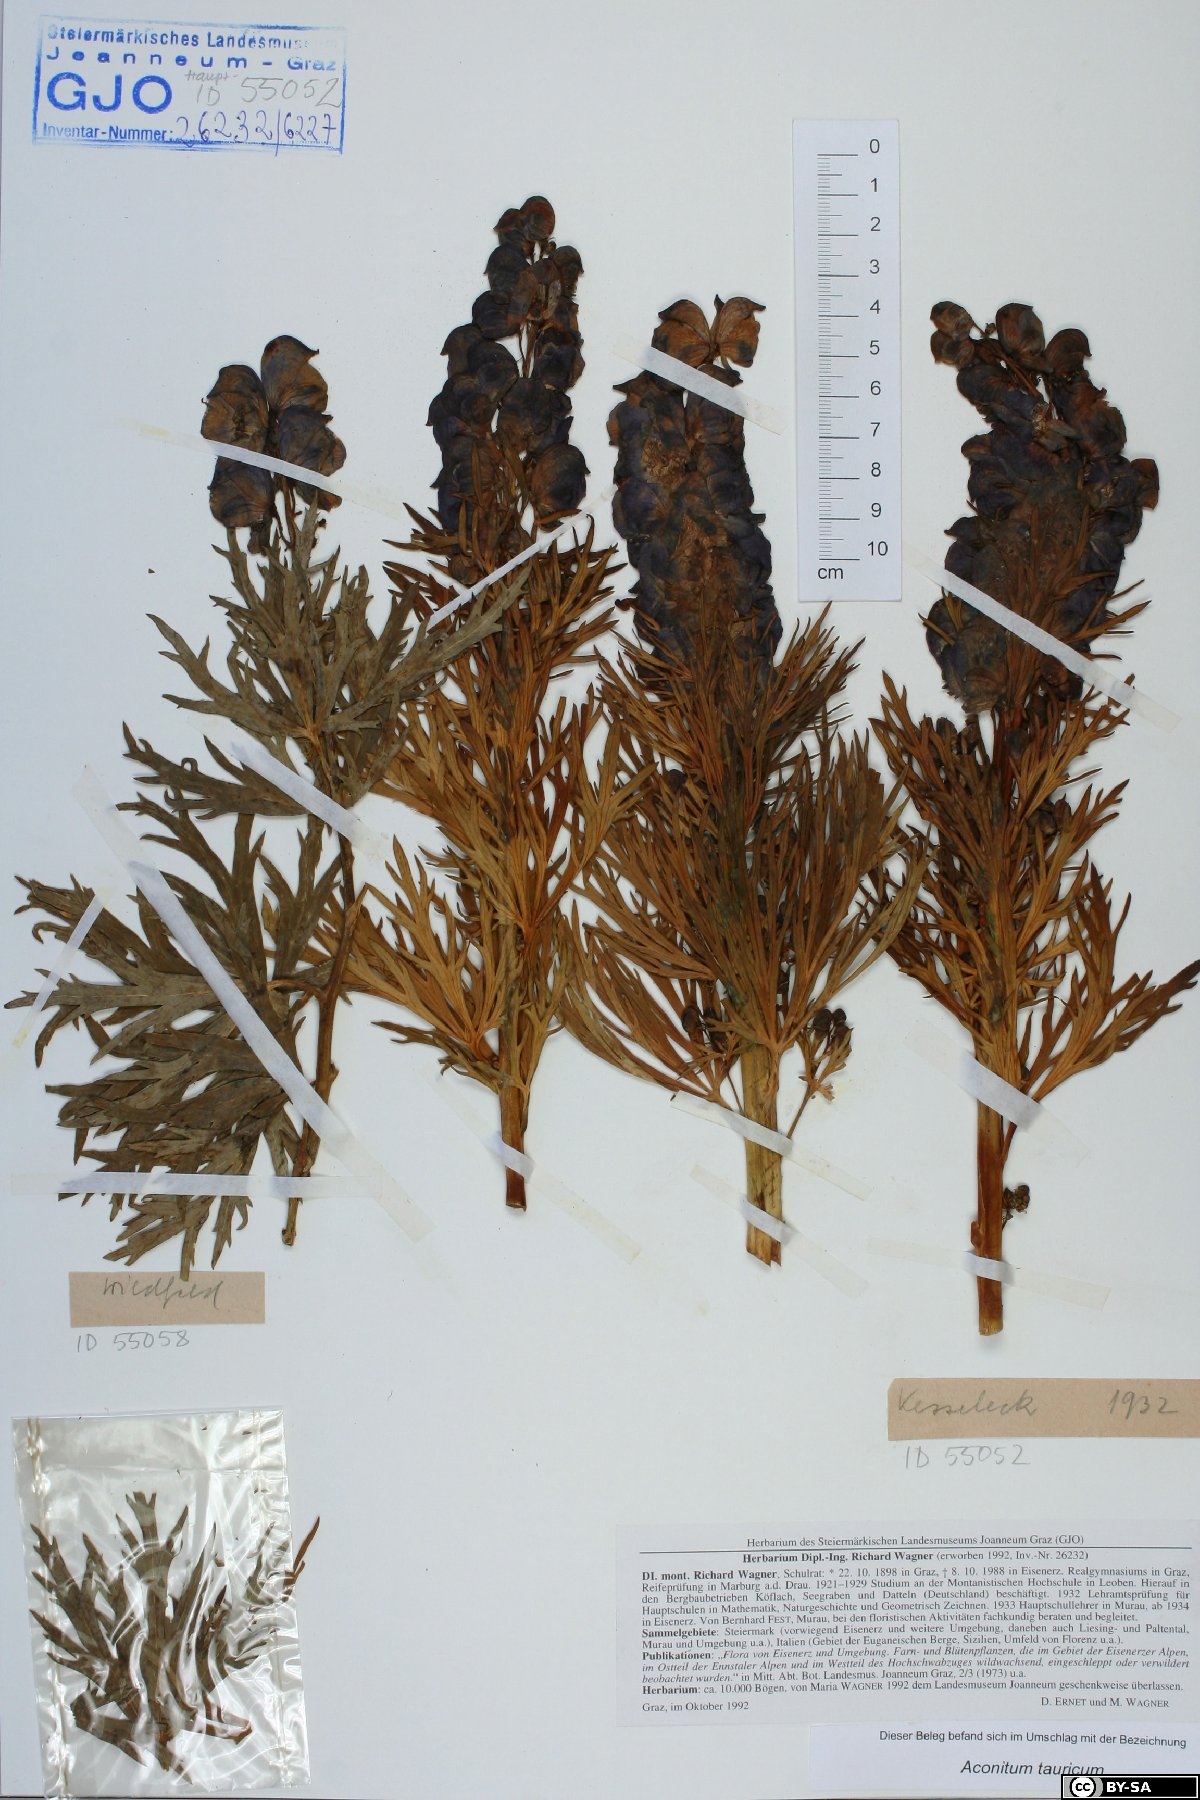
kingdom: Plantae
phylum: Tracheophyta
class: Magnoliopsida
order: Ranunculales
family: Ranunculaceae
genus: Aconitum
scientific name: Aconitum tauricum
